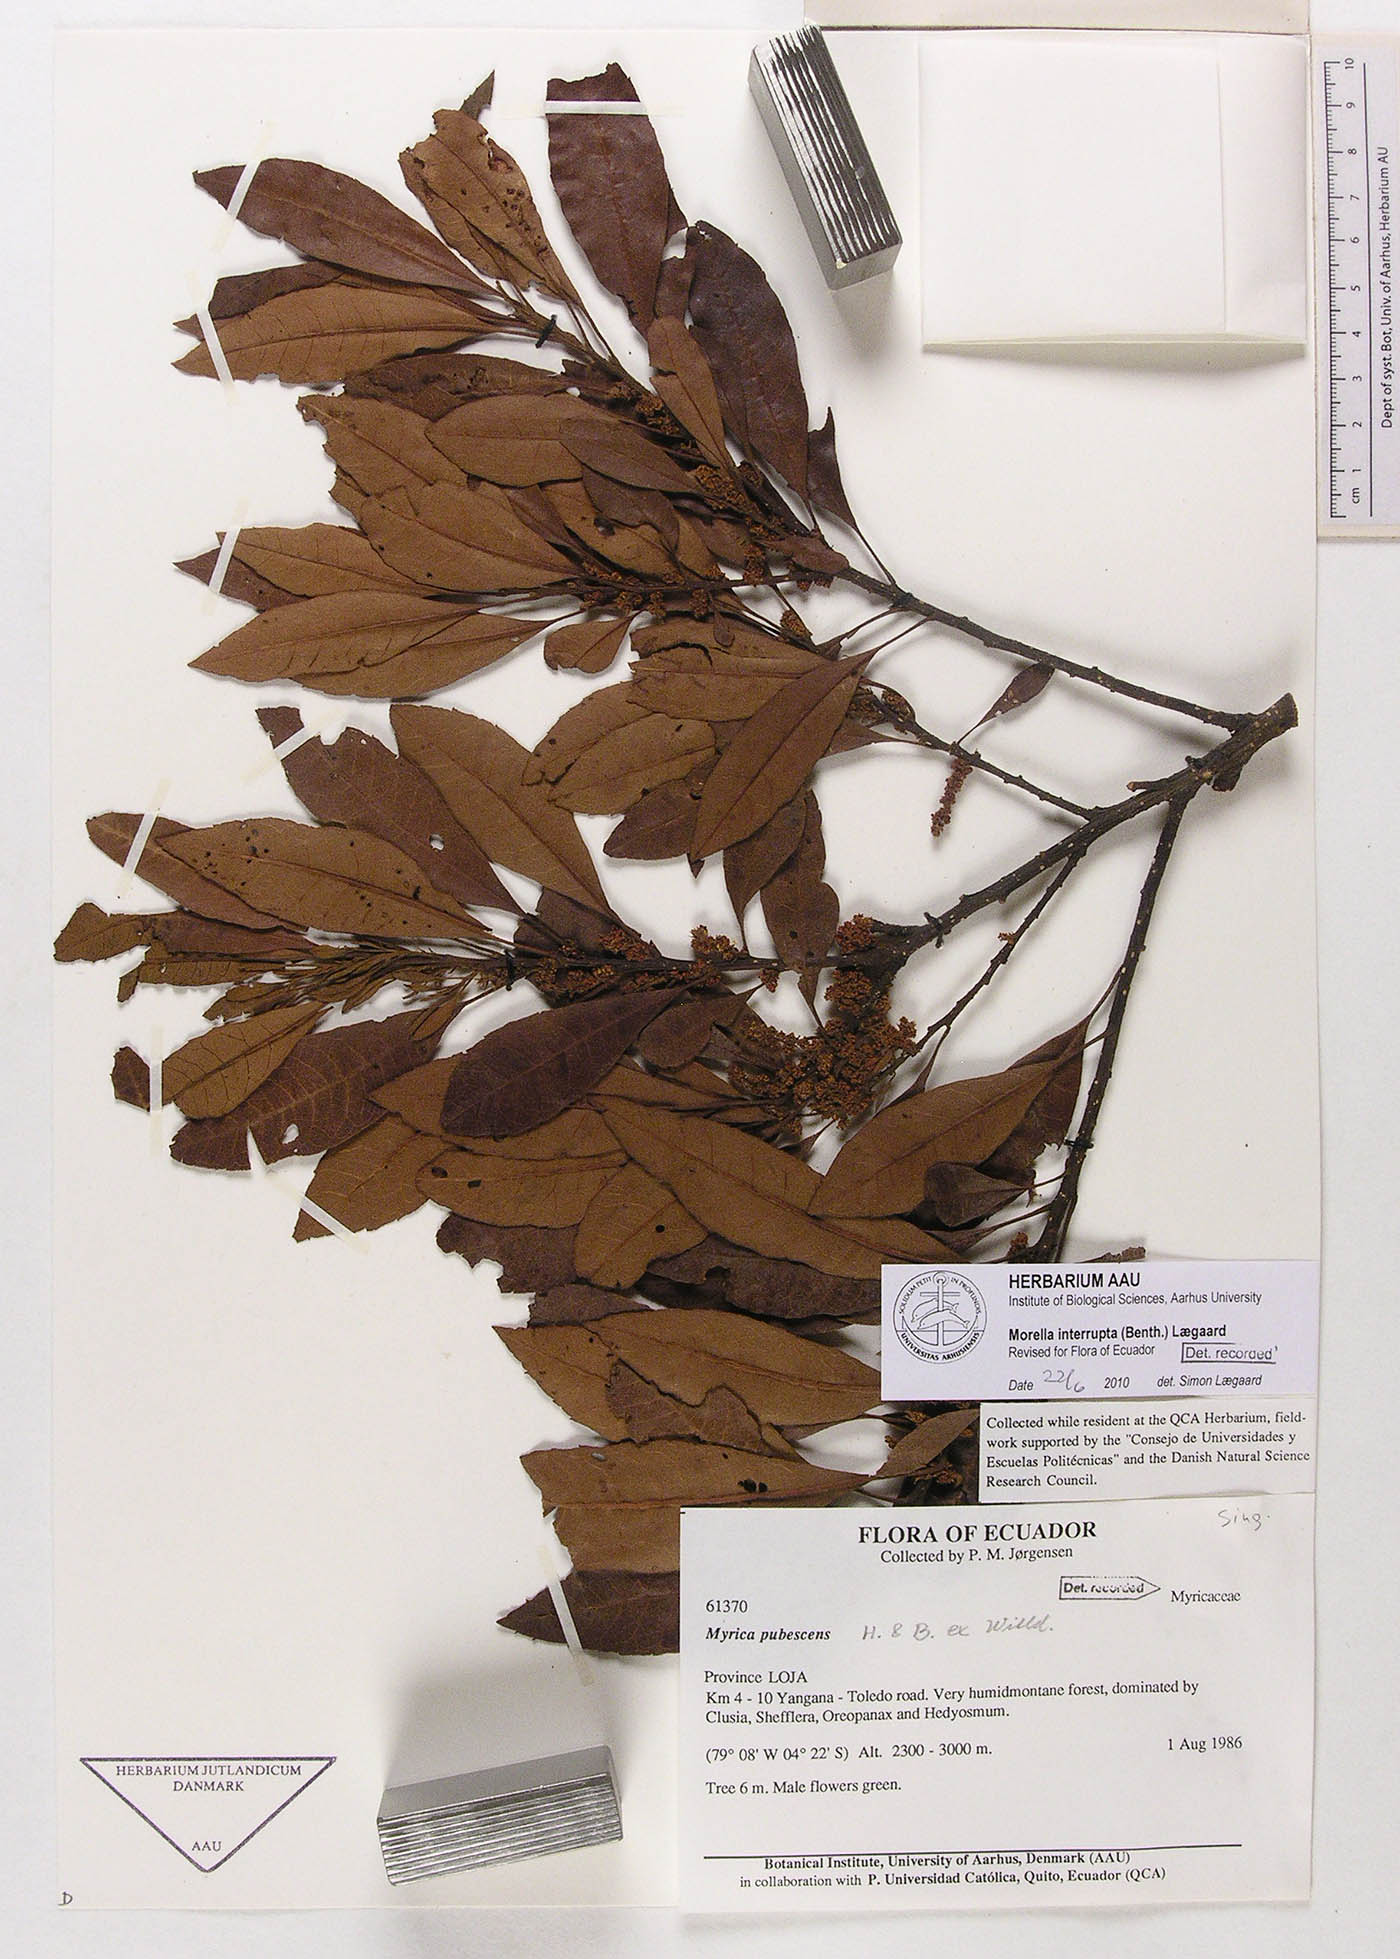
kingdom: Plantae
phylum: Tracheophyta
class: Magnoliopsida
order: Fagales
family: Myricaceae
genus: Morella
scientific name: Morella interrupta
